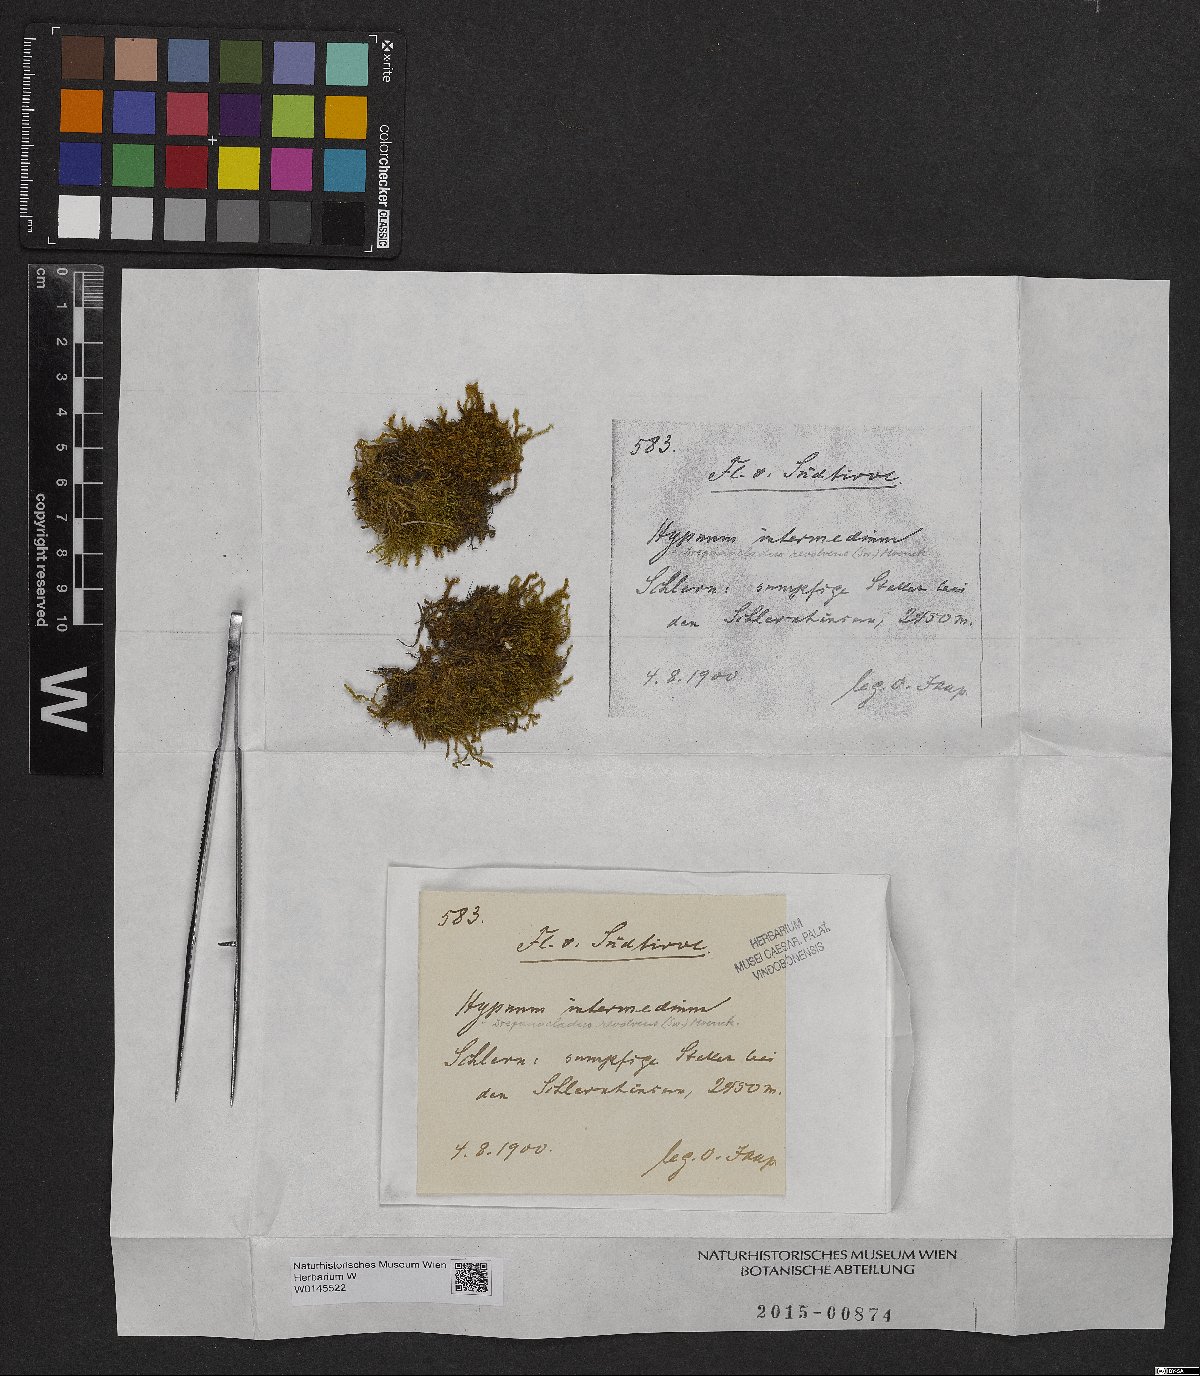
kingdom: Plantae
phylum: Bryophyta
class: Bryopsida
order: Hypnales
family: Thuidiaceae
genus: Thuidium
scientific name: Thuidium arzobispoae
